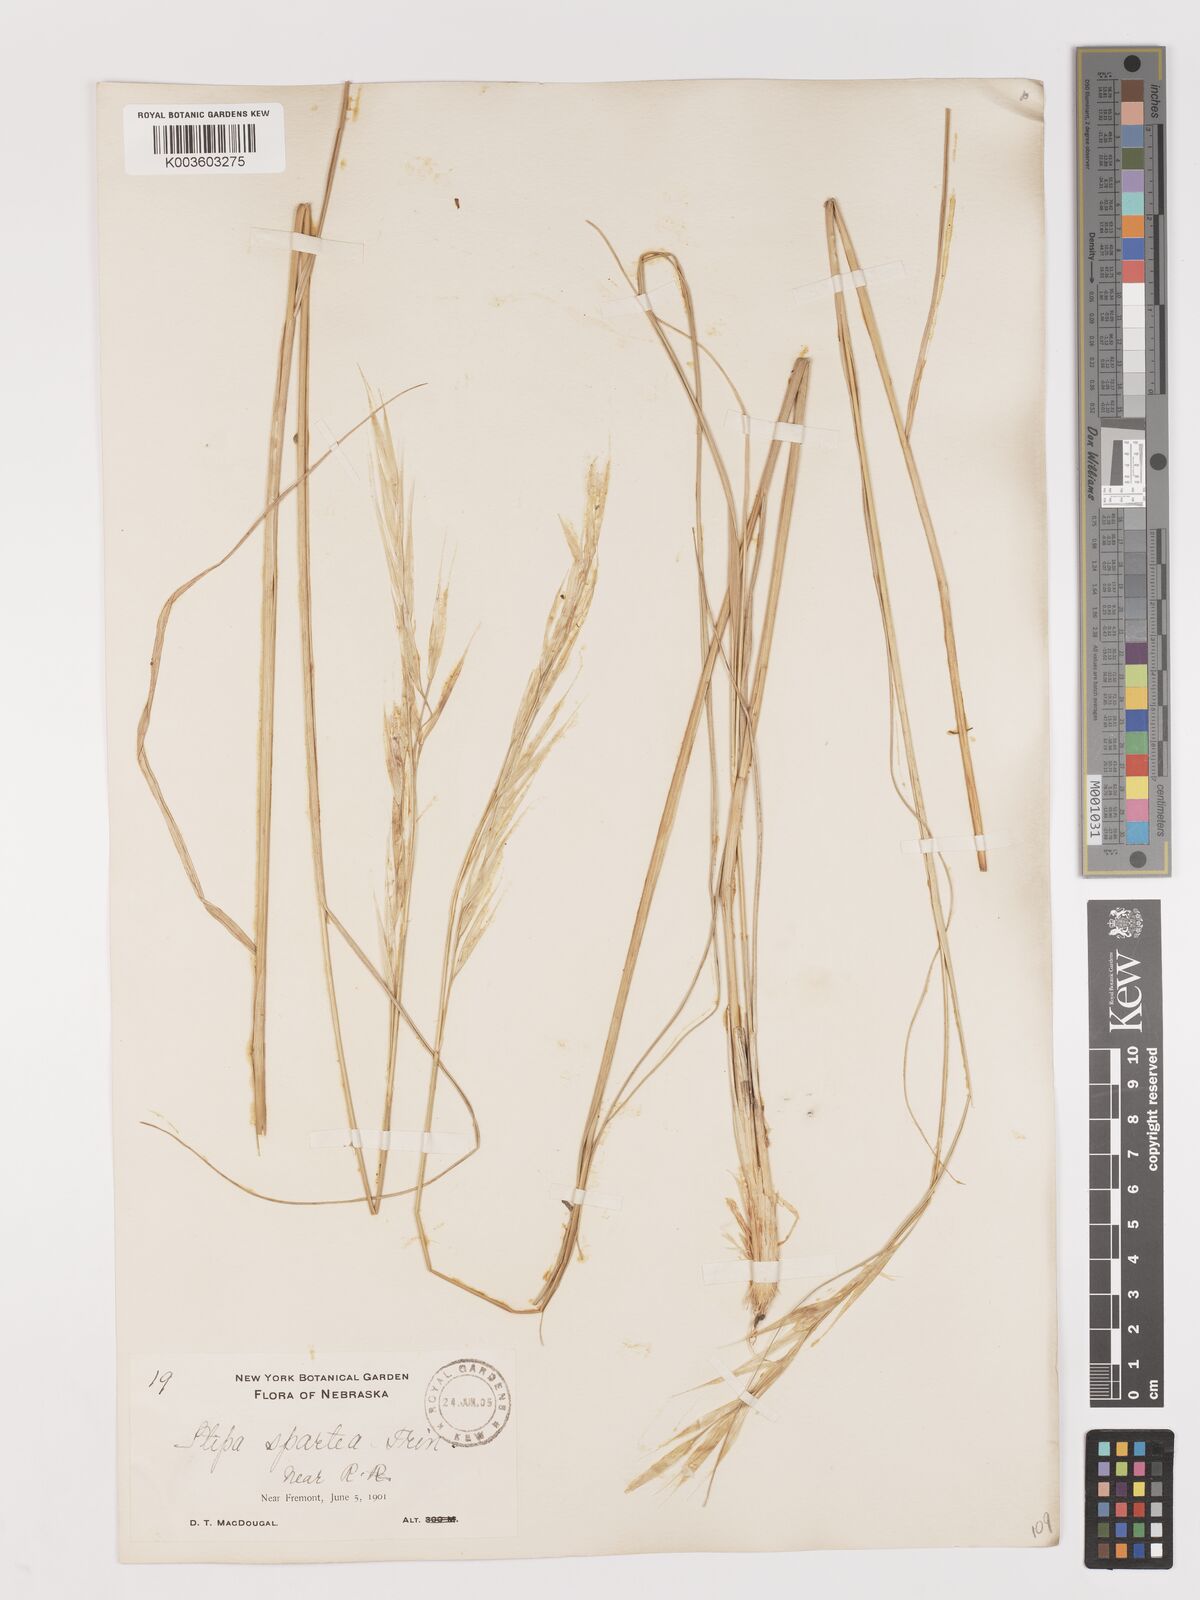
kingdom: Plantae
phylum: Tracheophyta
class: Liliopsida
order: Poales
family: Poaceae
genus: Hesperostipa
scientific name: Hesperostipa spartea
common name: Porcupine grass
